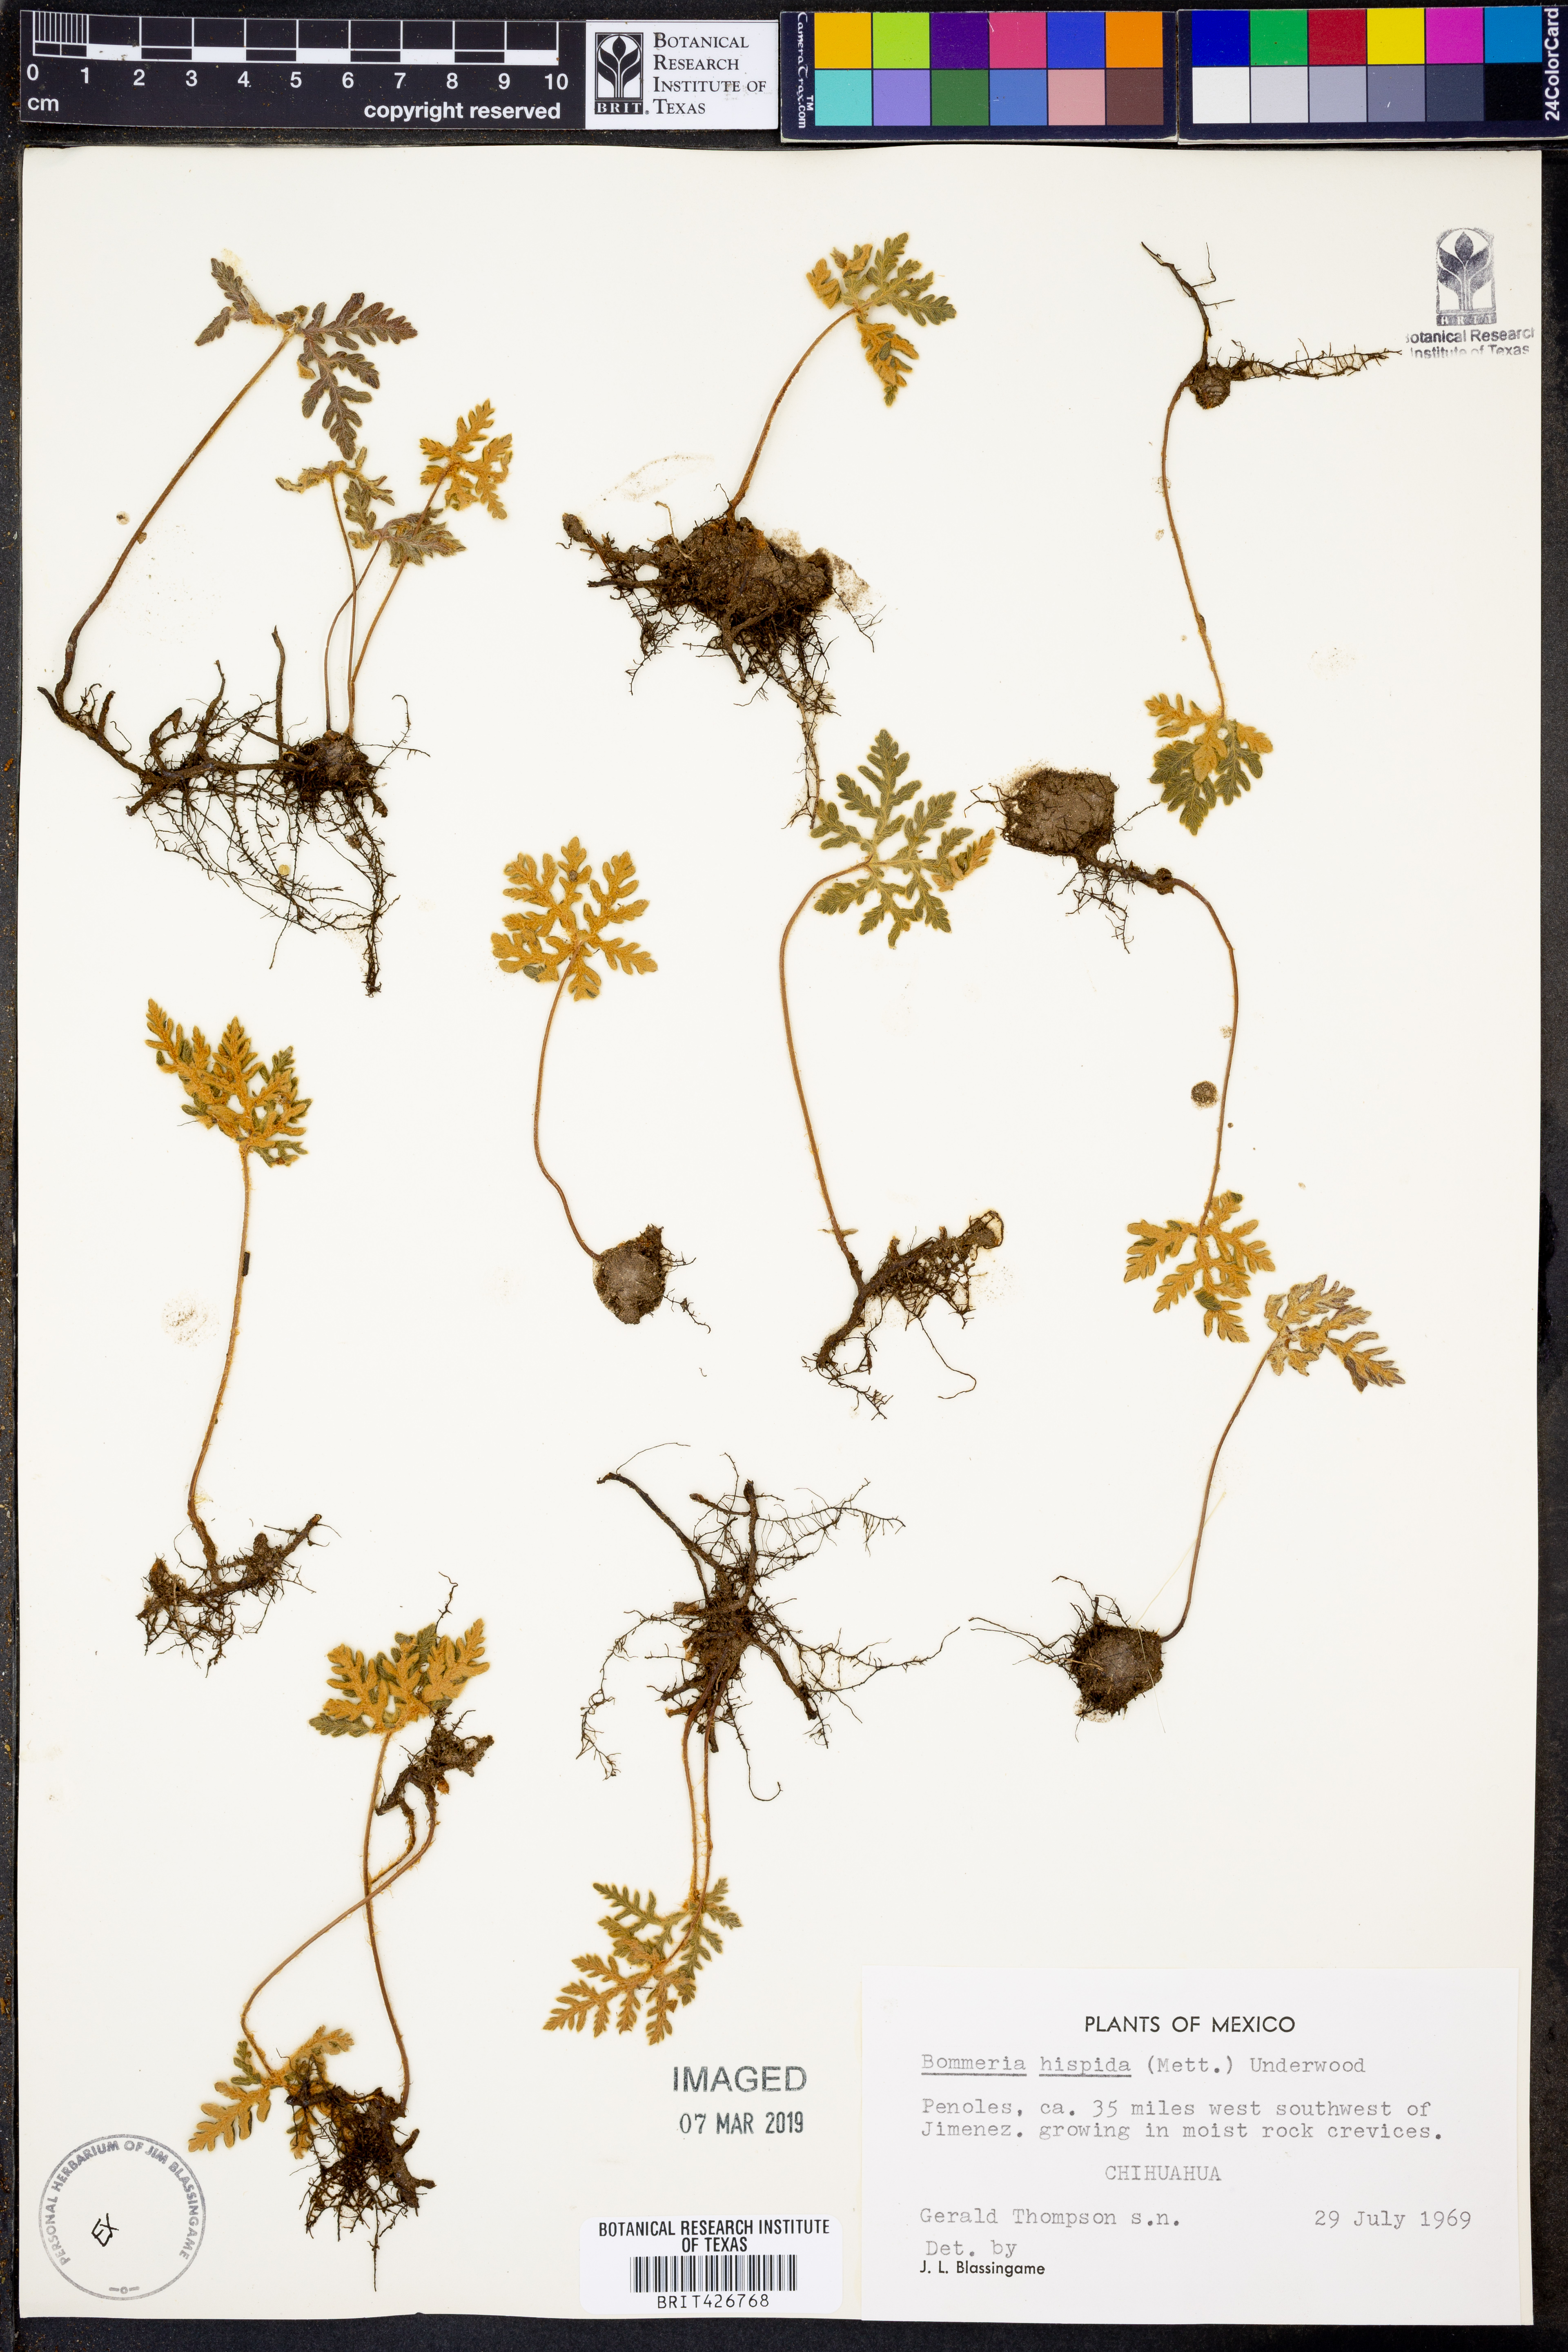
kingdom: Plantae
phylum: Tracheophyta
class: Polypodiopsida
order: Polypodiales
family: Pteridaceae
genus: Bommeria
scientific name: Bommeria hispida
